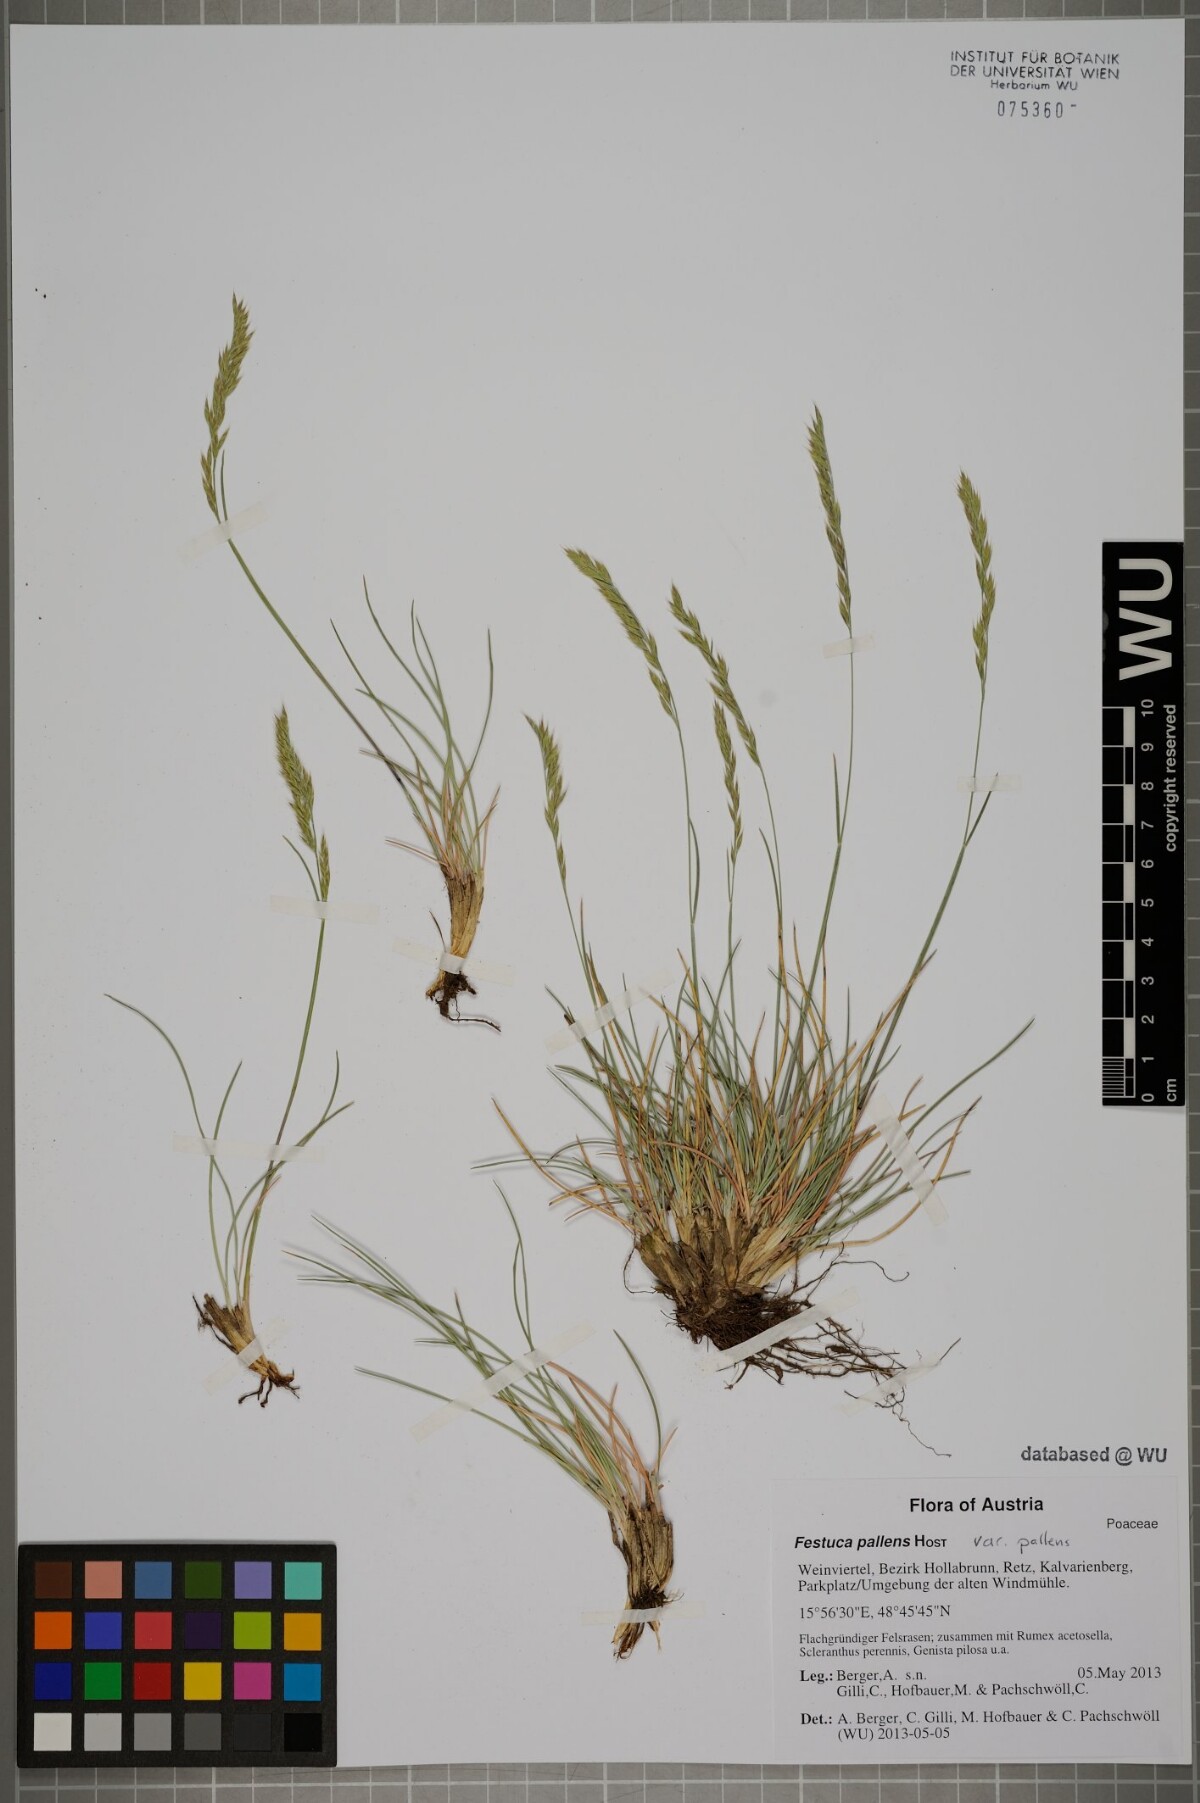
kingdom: Plantae
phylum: Tracheophyta
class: Liliopsida
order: Poales
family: Poaceae
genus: Festuca
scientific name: Festuca pallens
